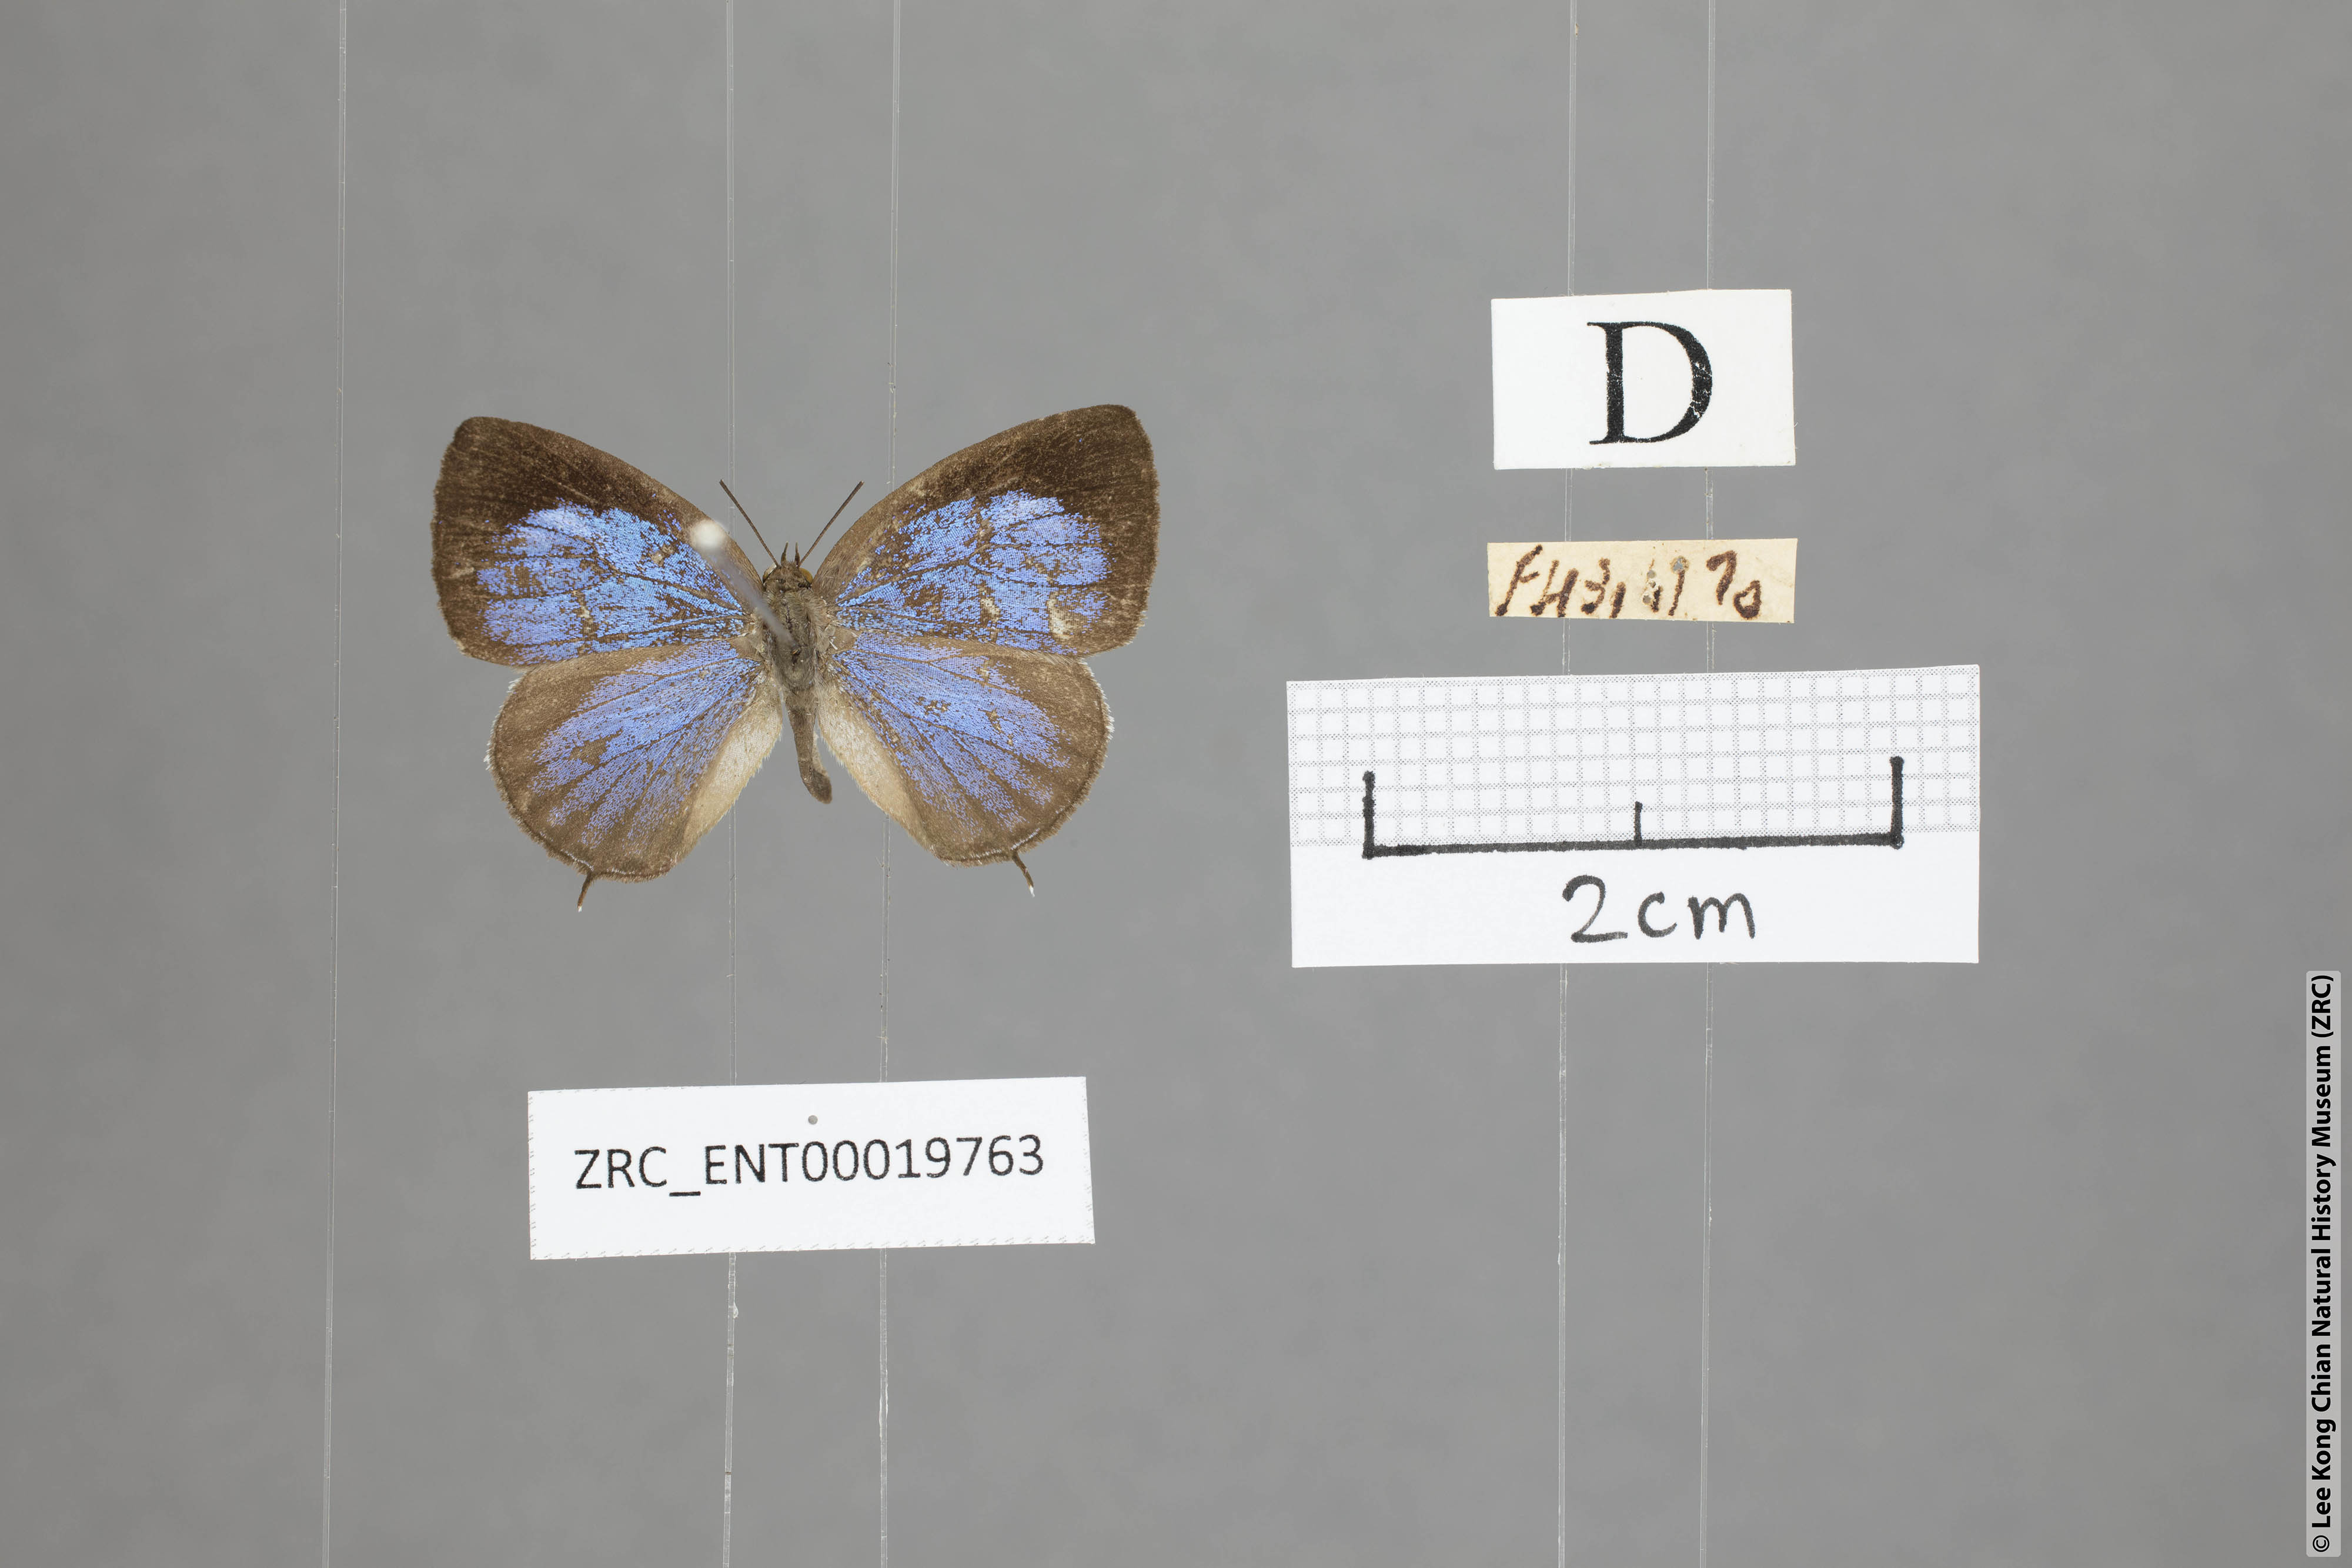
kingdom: Animalia
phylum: Arthropoda
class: Insecta
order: Lepidoptera
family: Lycaenidae
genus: Arhopala
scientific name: Arhopala paraganesa
